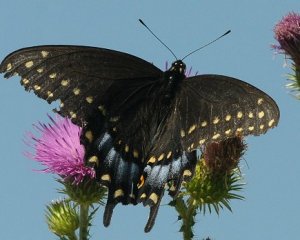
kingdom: Animalia
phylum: Arthropoda
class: Insecta
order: Lepidoptera
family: Papilionidae
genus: Papilio
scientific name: Papilio polyxenes
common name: Black Swallowtail
